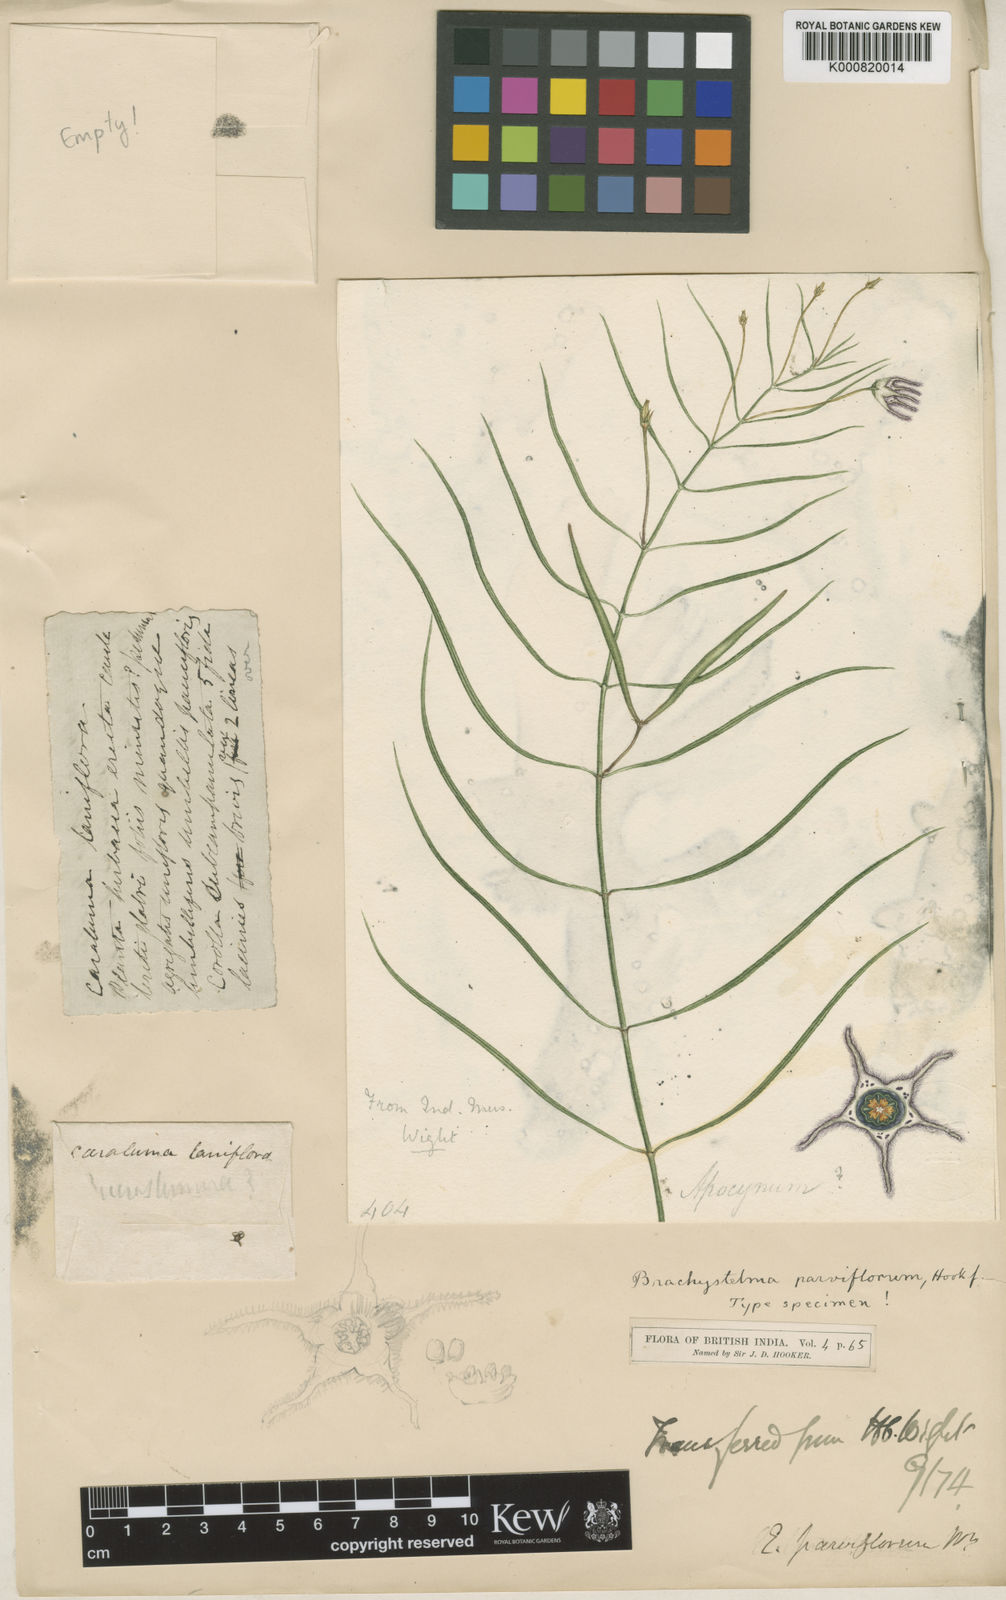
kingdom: Plantae
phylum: Tracheophyta
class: Magnoliopsida
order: Gentianales
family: Apocynaceae
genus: Ceropegia
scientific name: Ceropegia parvissima
